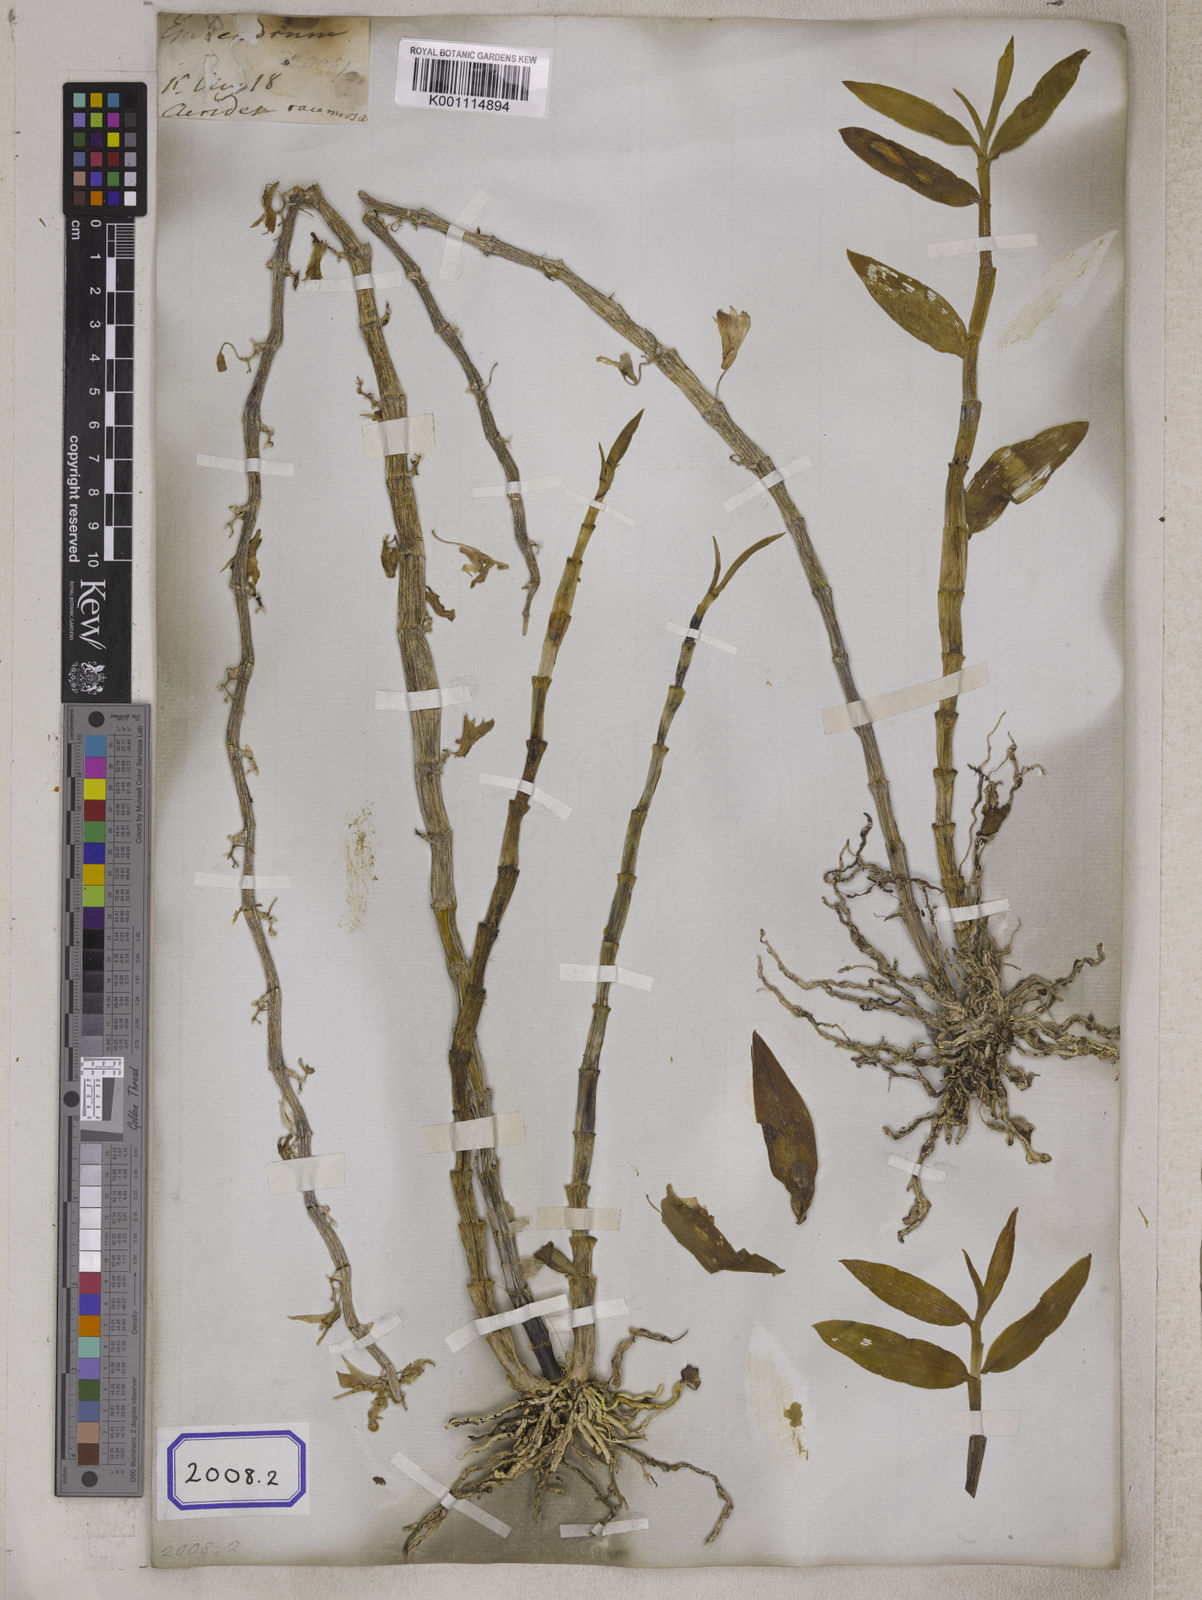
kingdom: Plantae
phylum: Tracheophyta
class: Liliopsida
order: Asparagales
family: Orchidaceae
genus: Dendrobium
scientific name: Dendrobium
